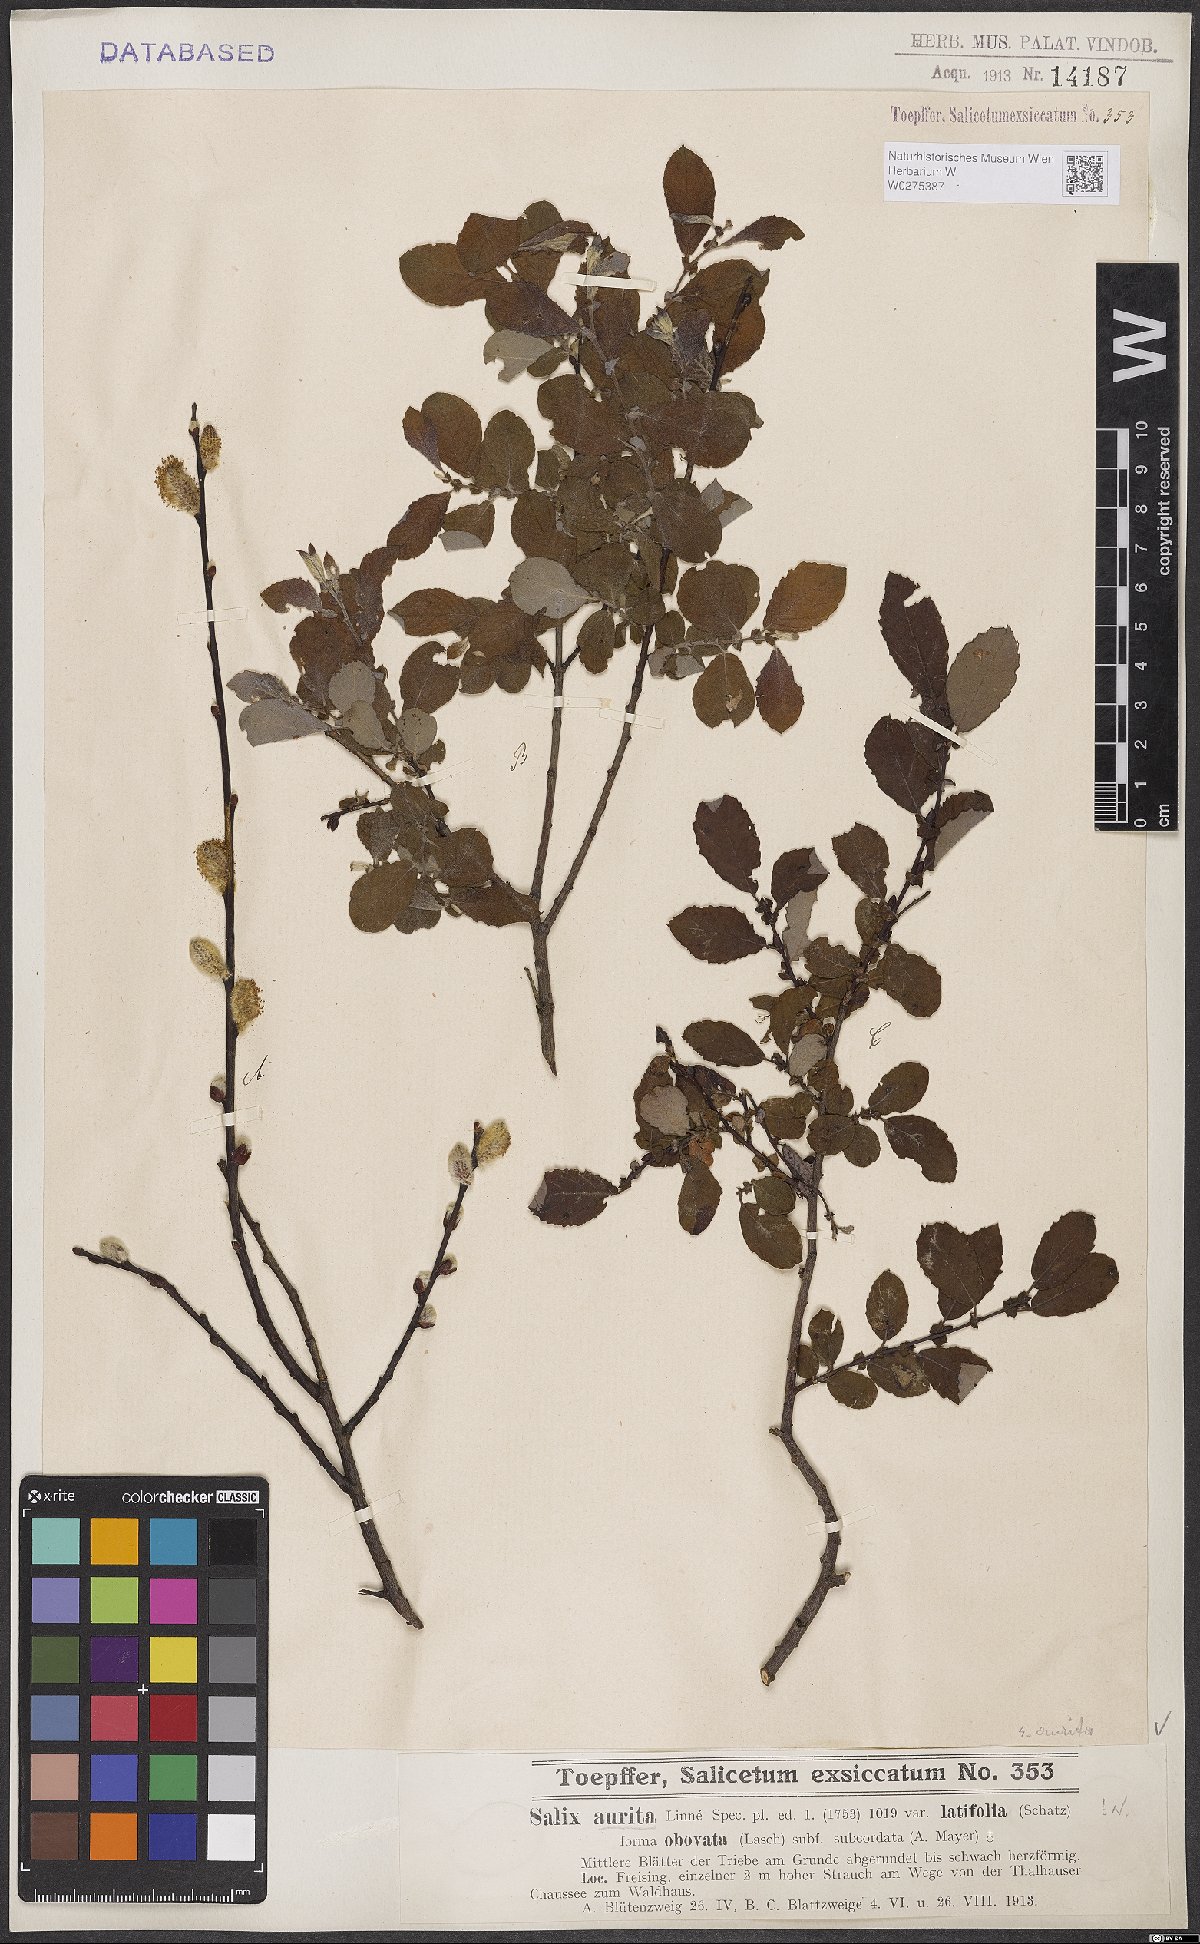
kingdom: Plantae
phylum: Tracheophyta
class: Magnoliopsida
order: Malpighiales
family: Salicaceae
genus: Salix
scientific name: Salix aurita
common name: Eared willow
